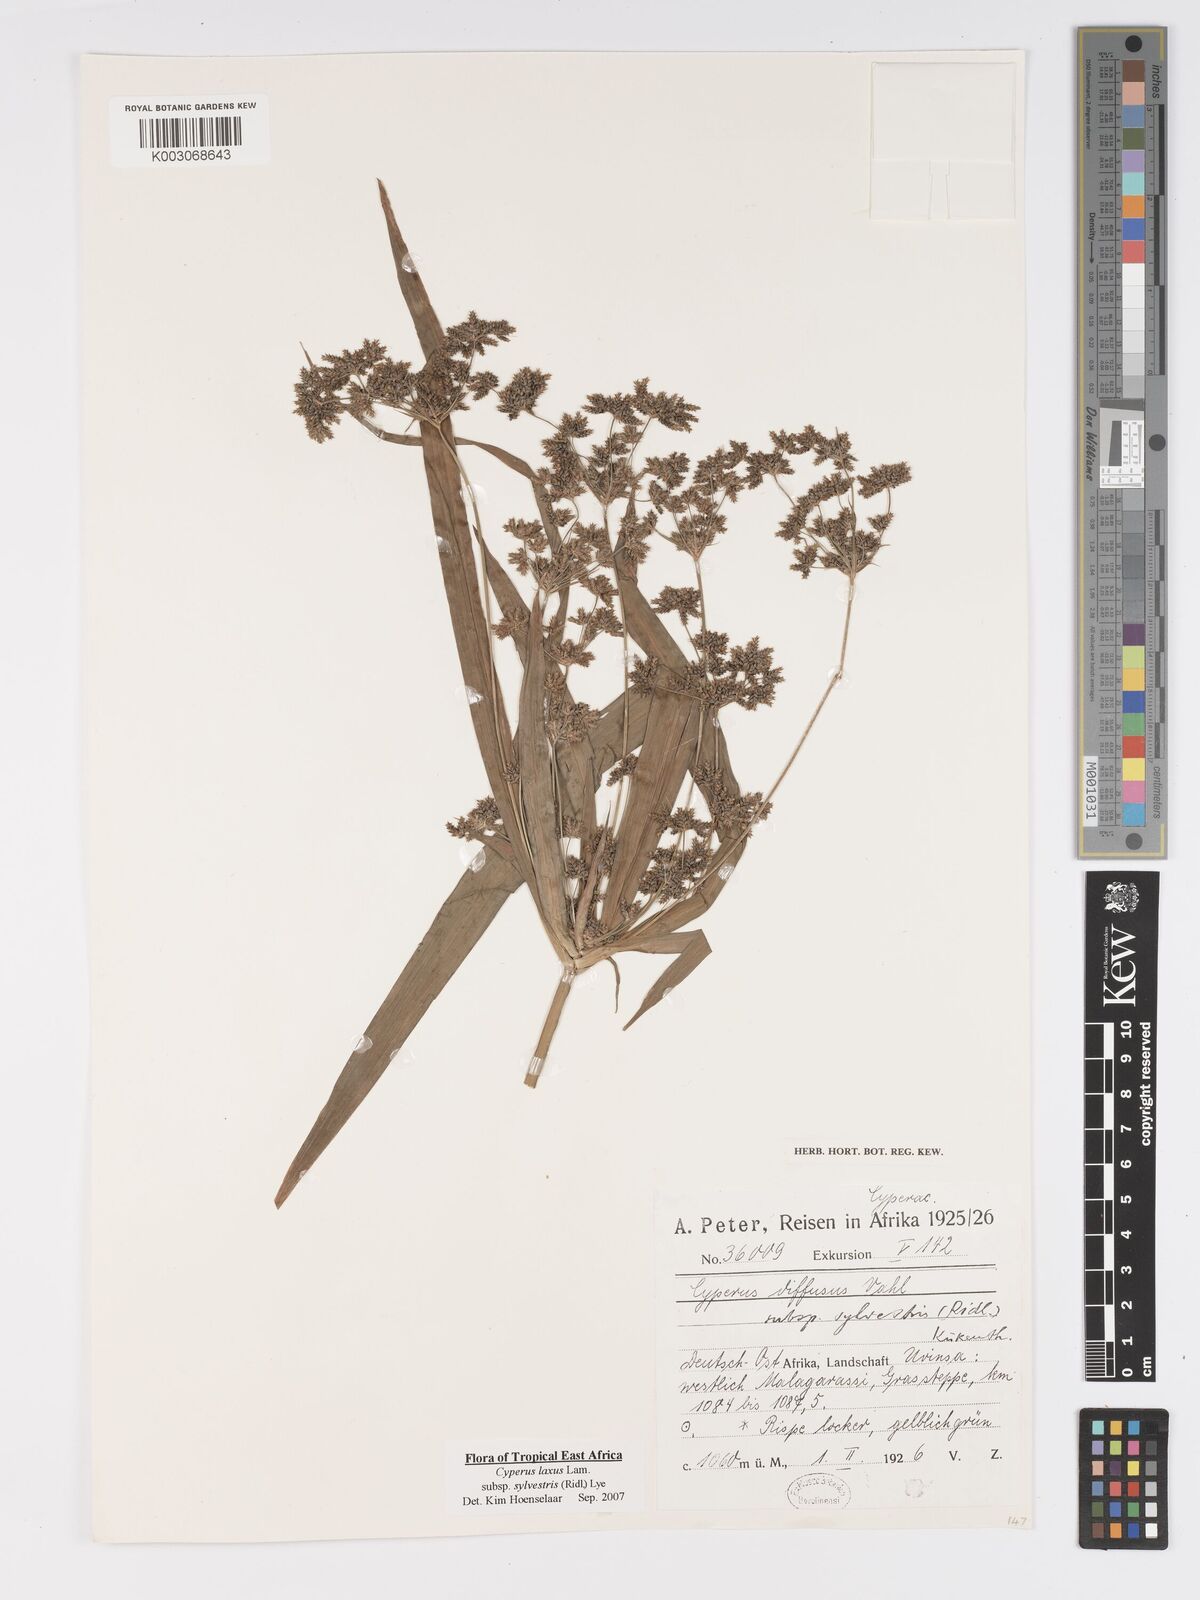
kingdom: Plantae
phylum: Tracheophyta
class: Liliopsida
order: Poales
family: Cyperaceae
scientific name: Cyperaceae
